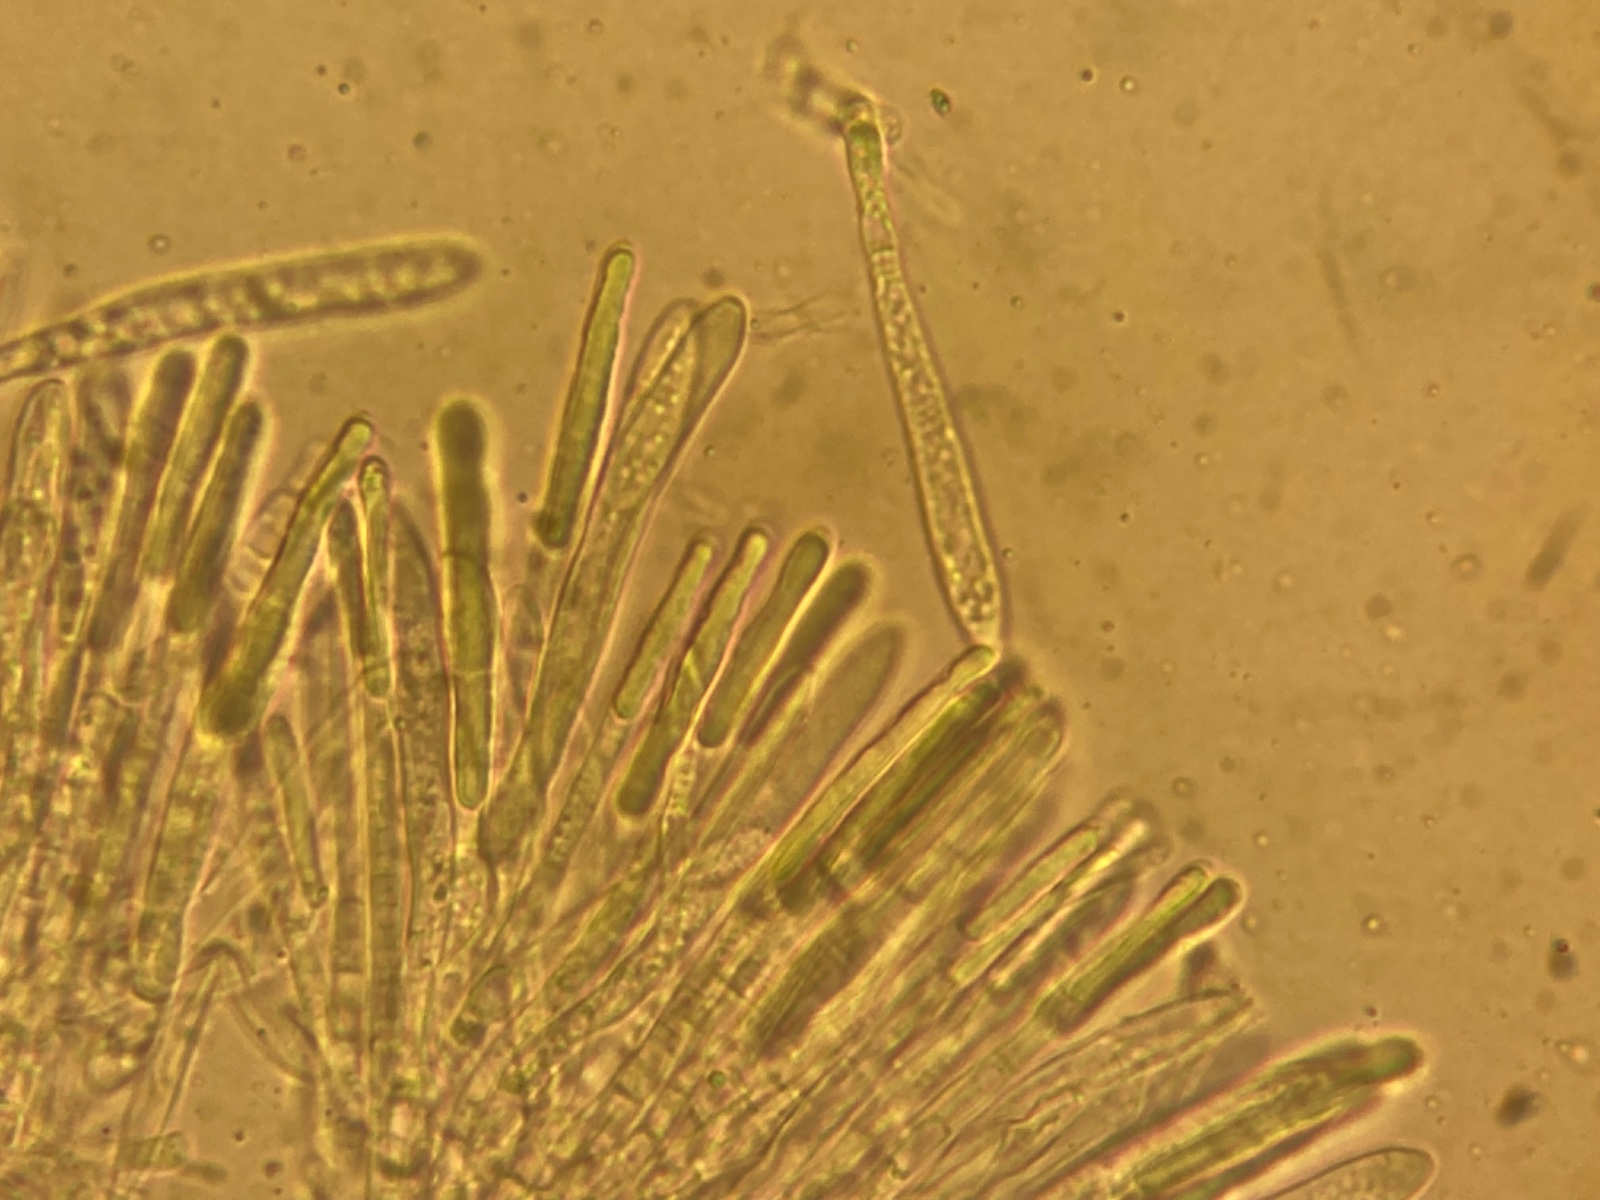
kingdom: Fungi
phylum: Ascomycota
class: Leotiomycetes
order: Helotiales
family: Dermateaceae
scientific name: Dermateaceae
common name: gråskivefamilien
